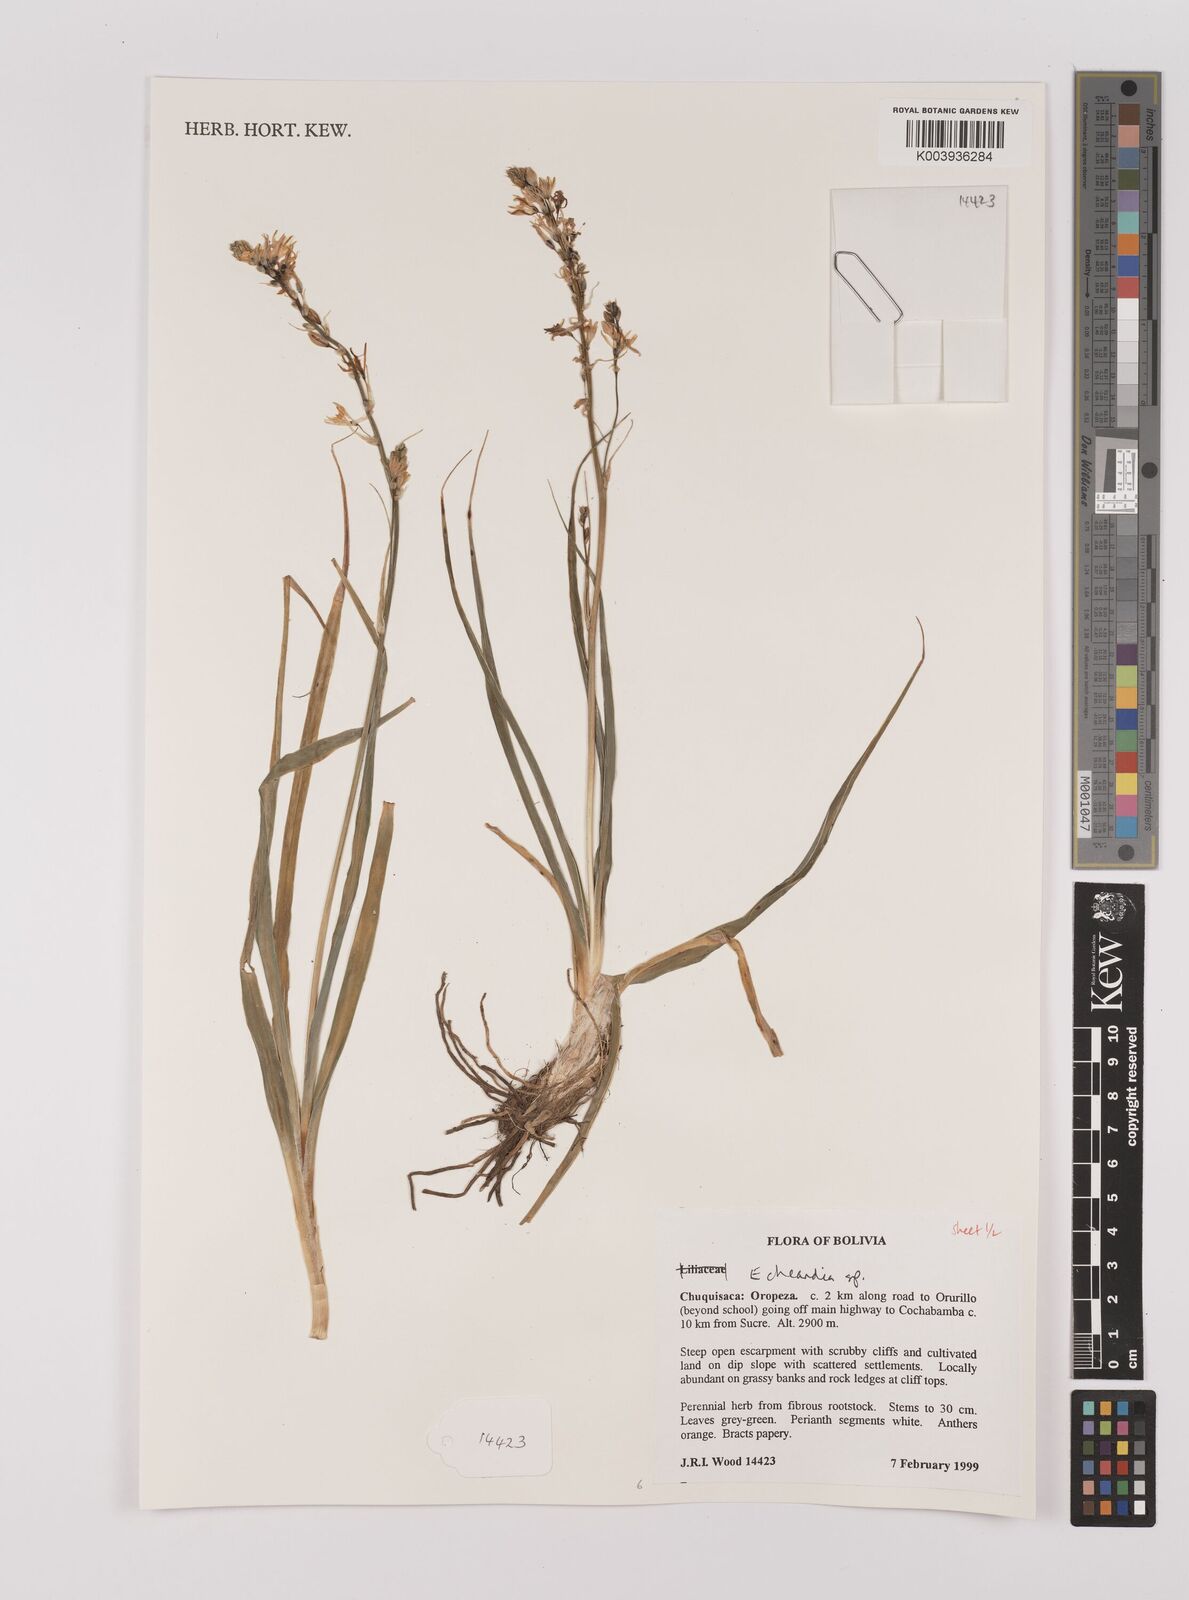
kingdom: Plantae
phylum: Tracheophyta
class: Liliopsida
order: Asparagales
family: Asparagaceae
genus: Echeandia
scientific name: Echeandia
